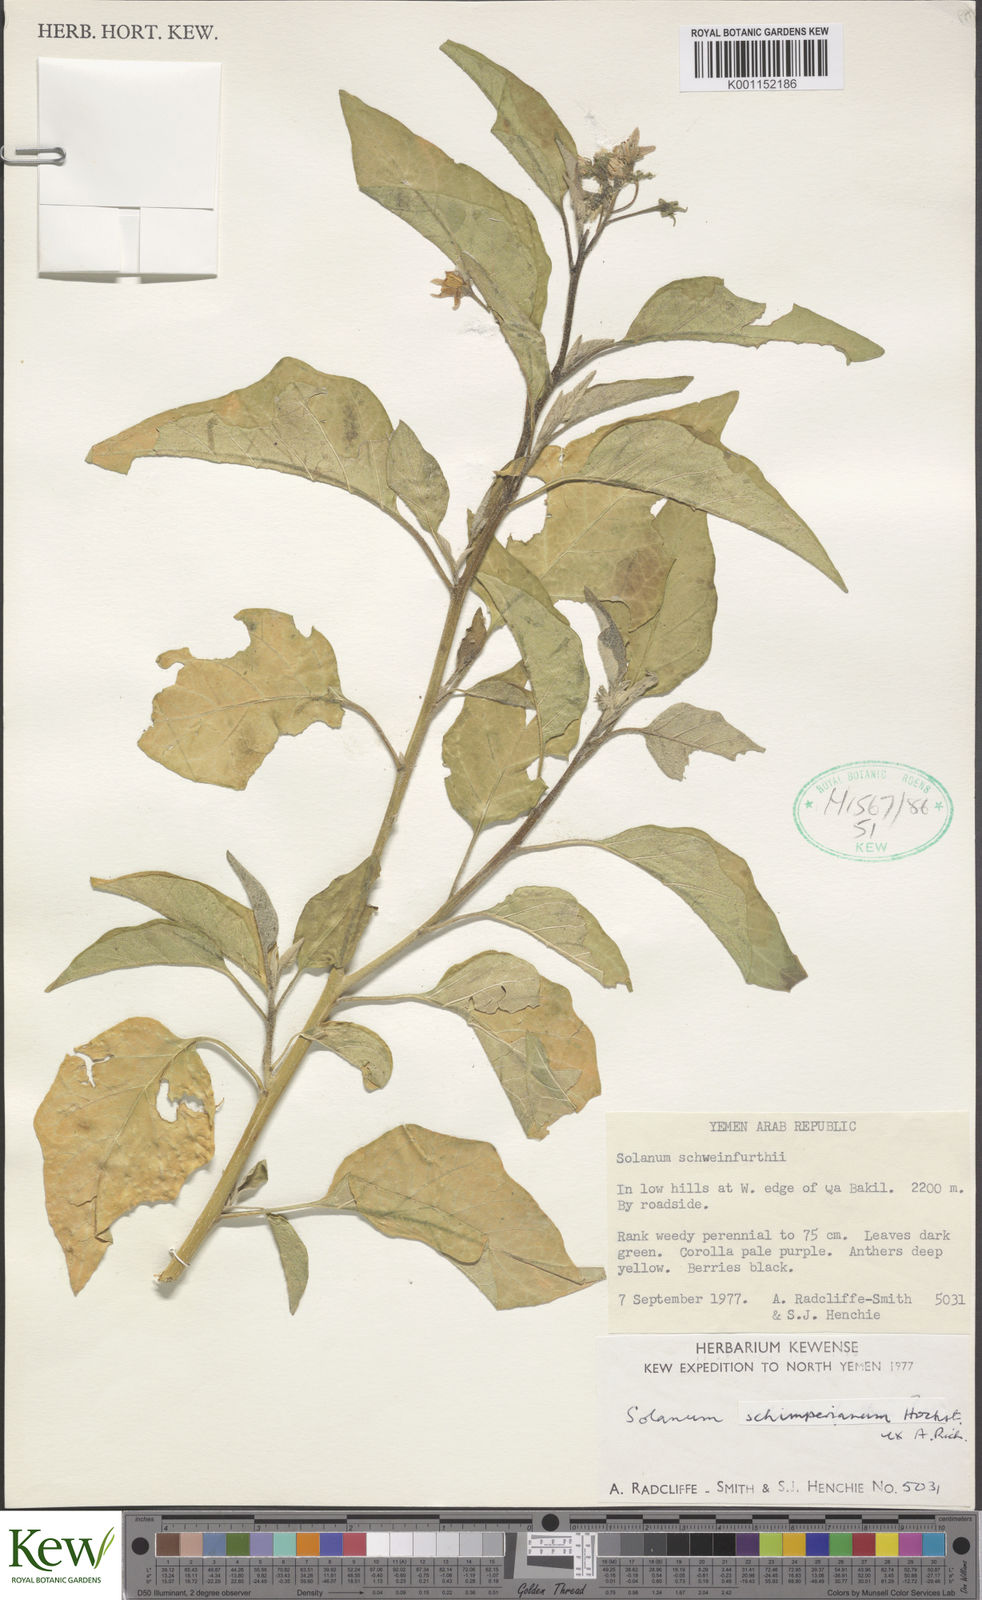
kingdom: Plantae
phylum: Tracheophyta
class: Magnoliopsida
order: Solanales
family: Solanaceae
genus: Solanum
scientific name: Solanum
